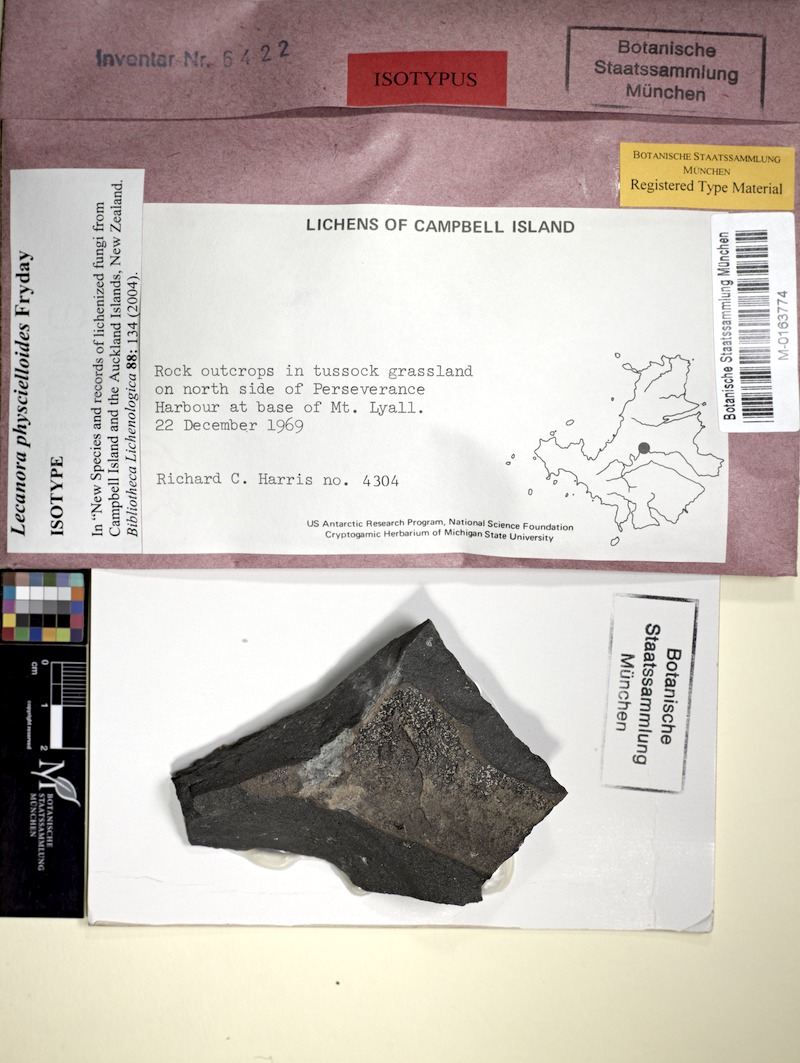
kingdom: Fungi
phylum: Ascomycota
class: Lecanoromycetes
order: Lecanorales
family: Lecanoraceae
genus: Lecanora
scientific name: Lecanora physcielloides
